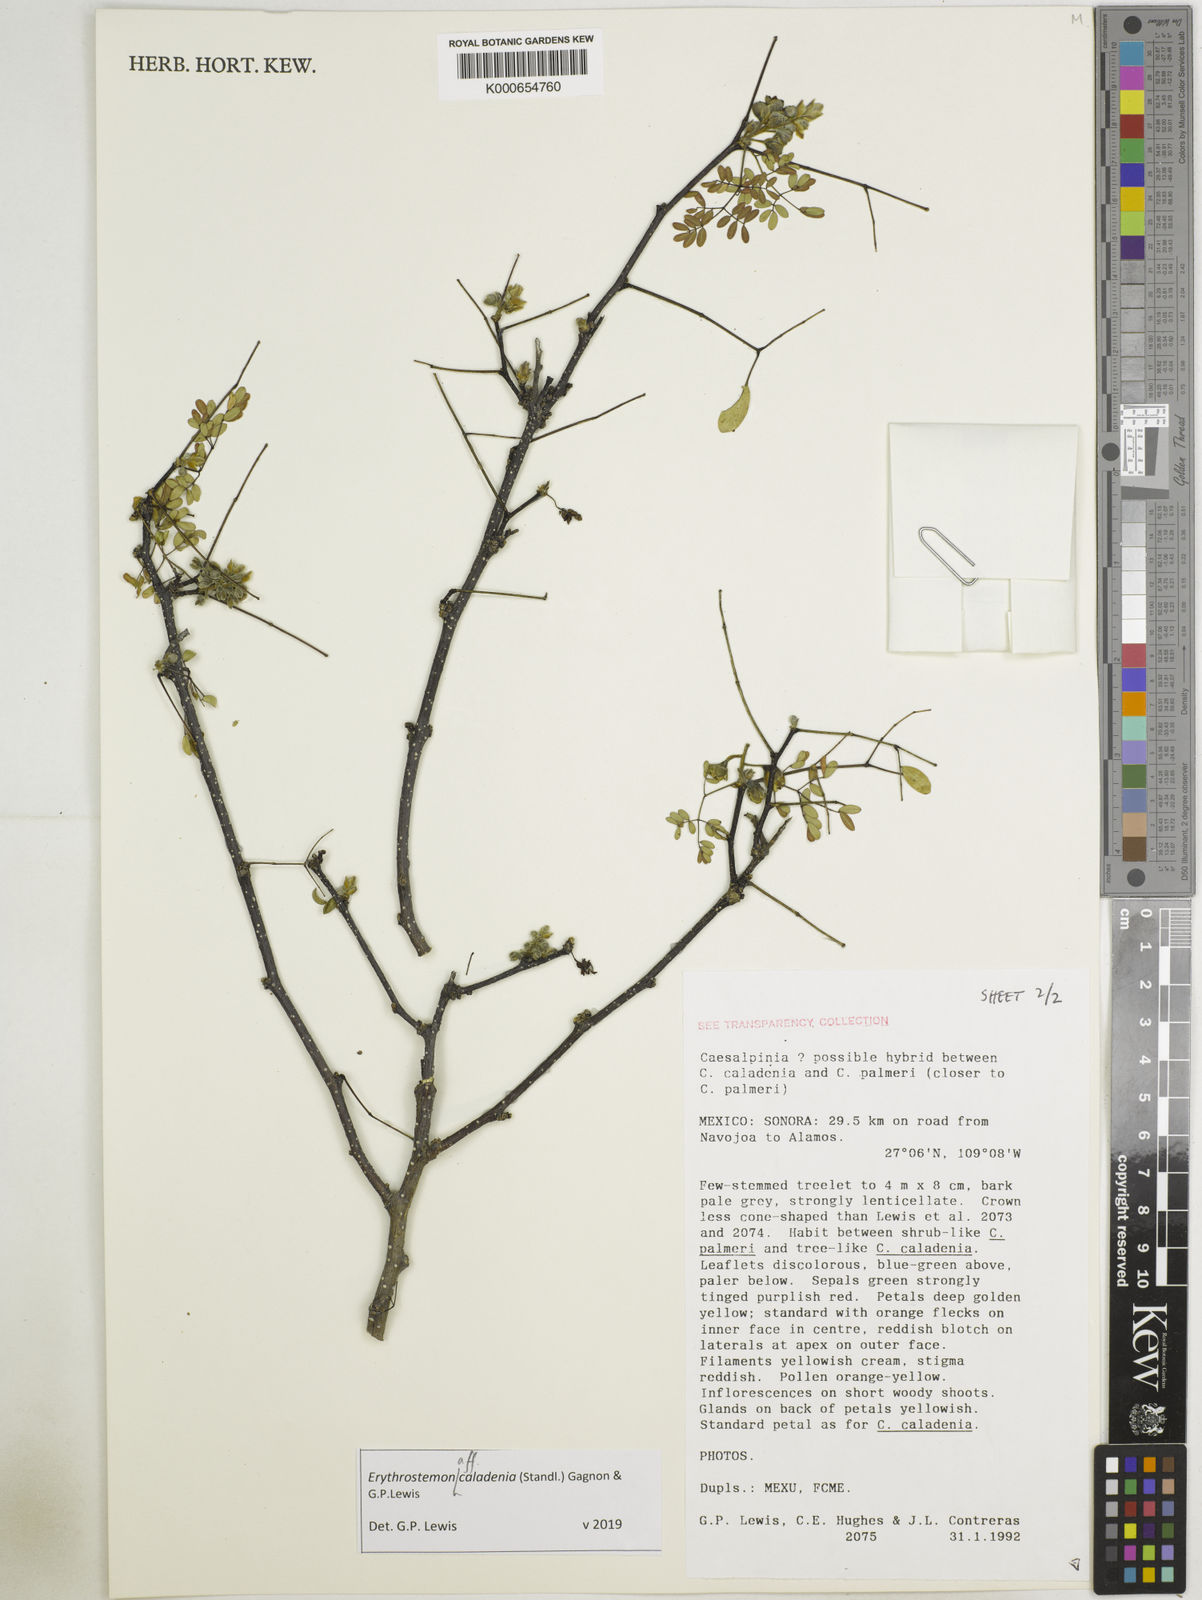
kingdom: Plantae
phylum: Tracheophyta
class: Magnoliopsida
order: Fabales
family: Fabaceae
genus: Erythrostemon
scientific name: Erythrostemon palmeri
